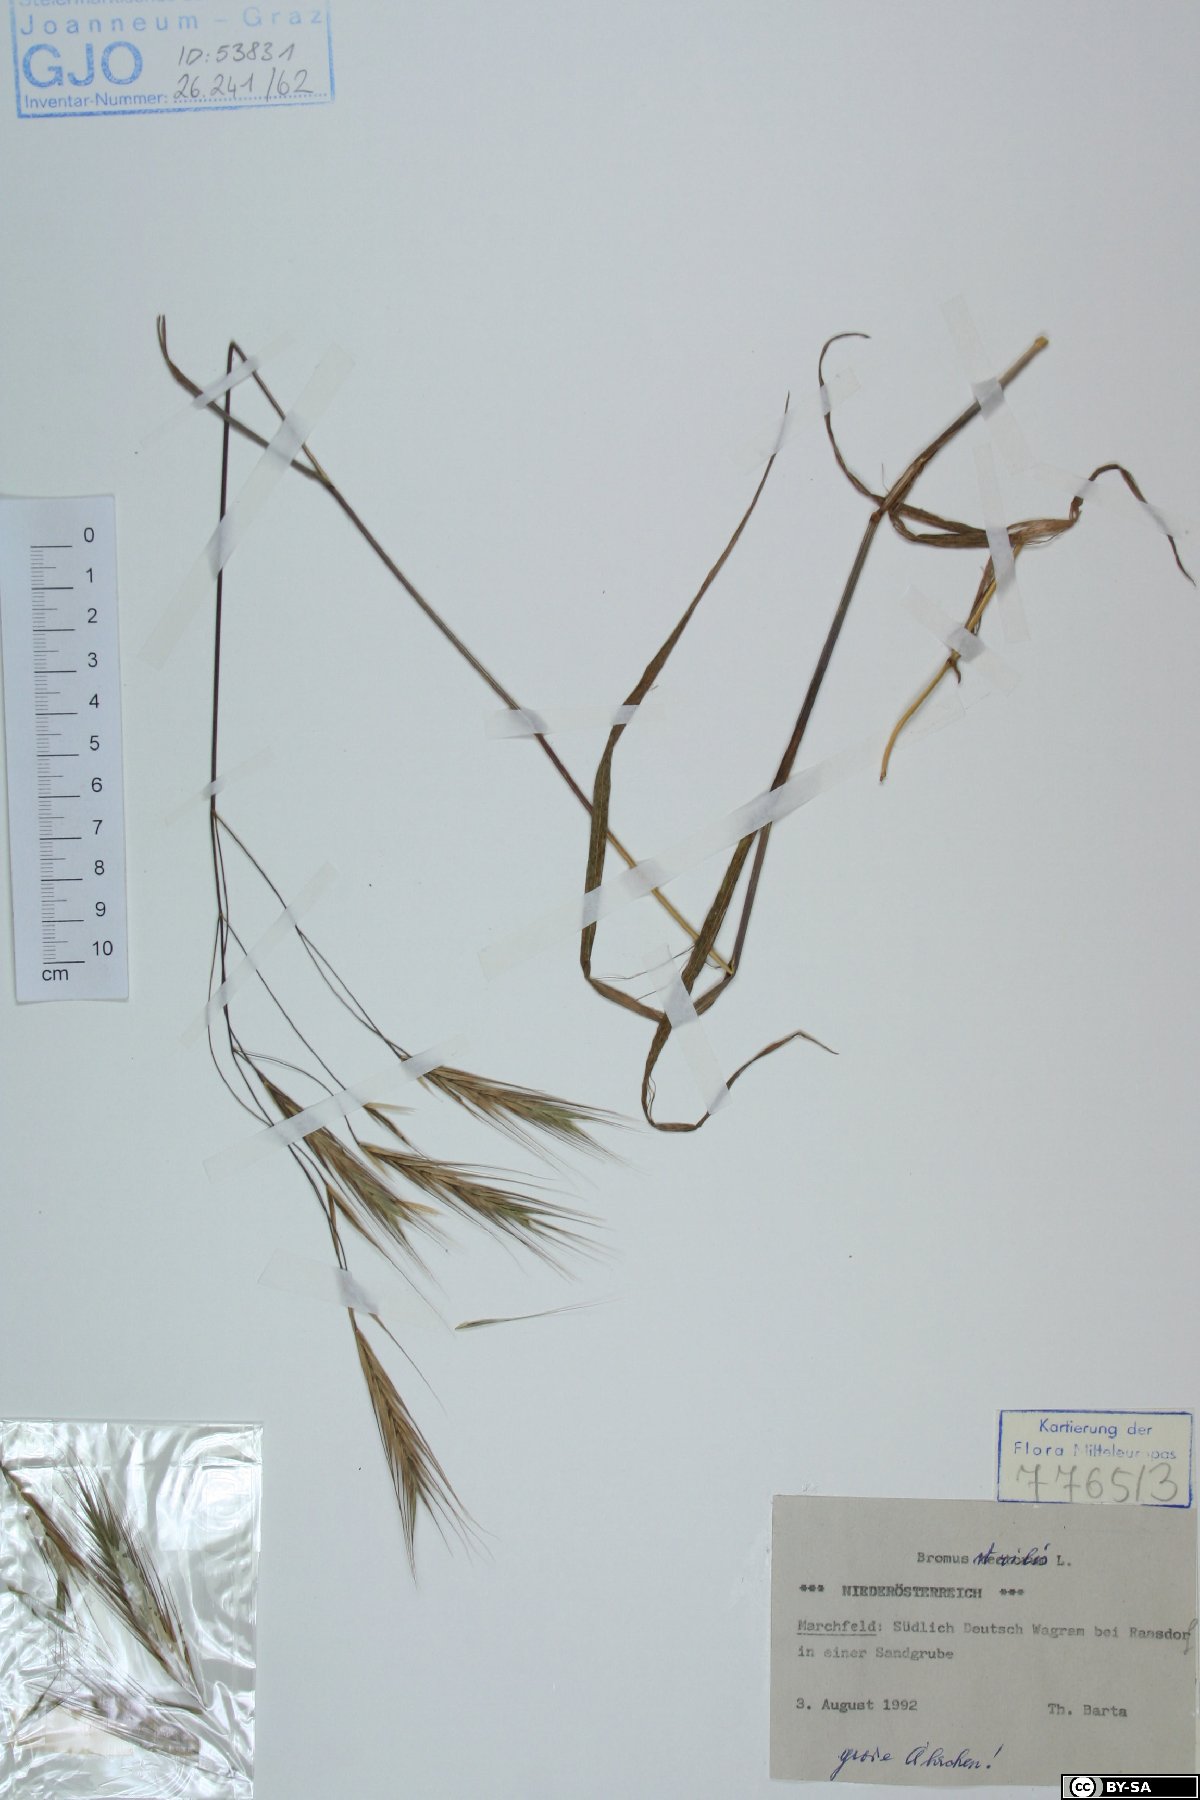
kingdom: Plantae
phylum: Tracheophyta
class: Liliopsida
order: Poales
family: Poaceae
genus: Bromus
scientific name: Bromus sterilis
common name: Poverty brome
